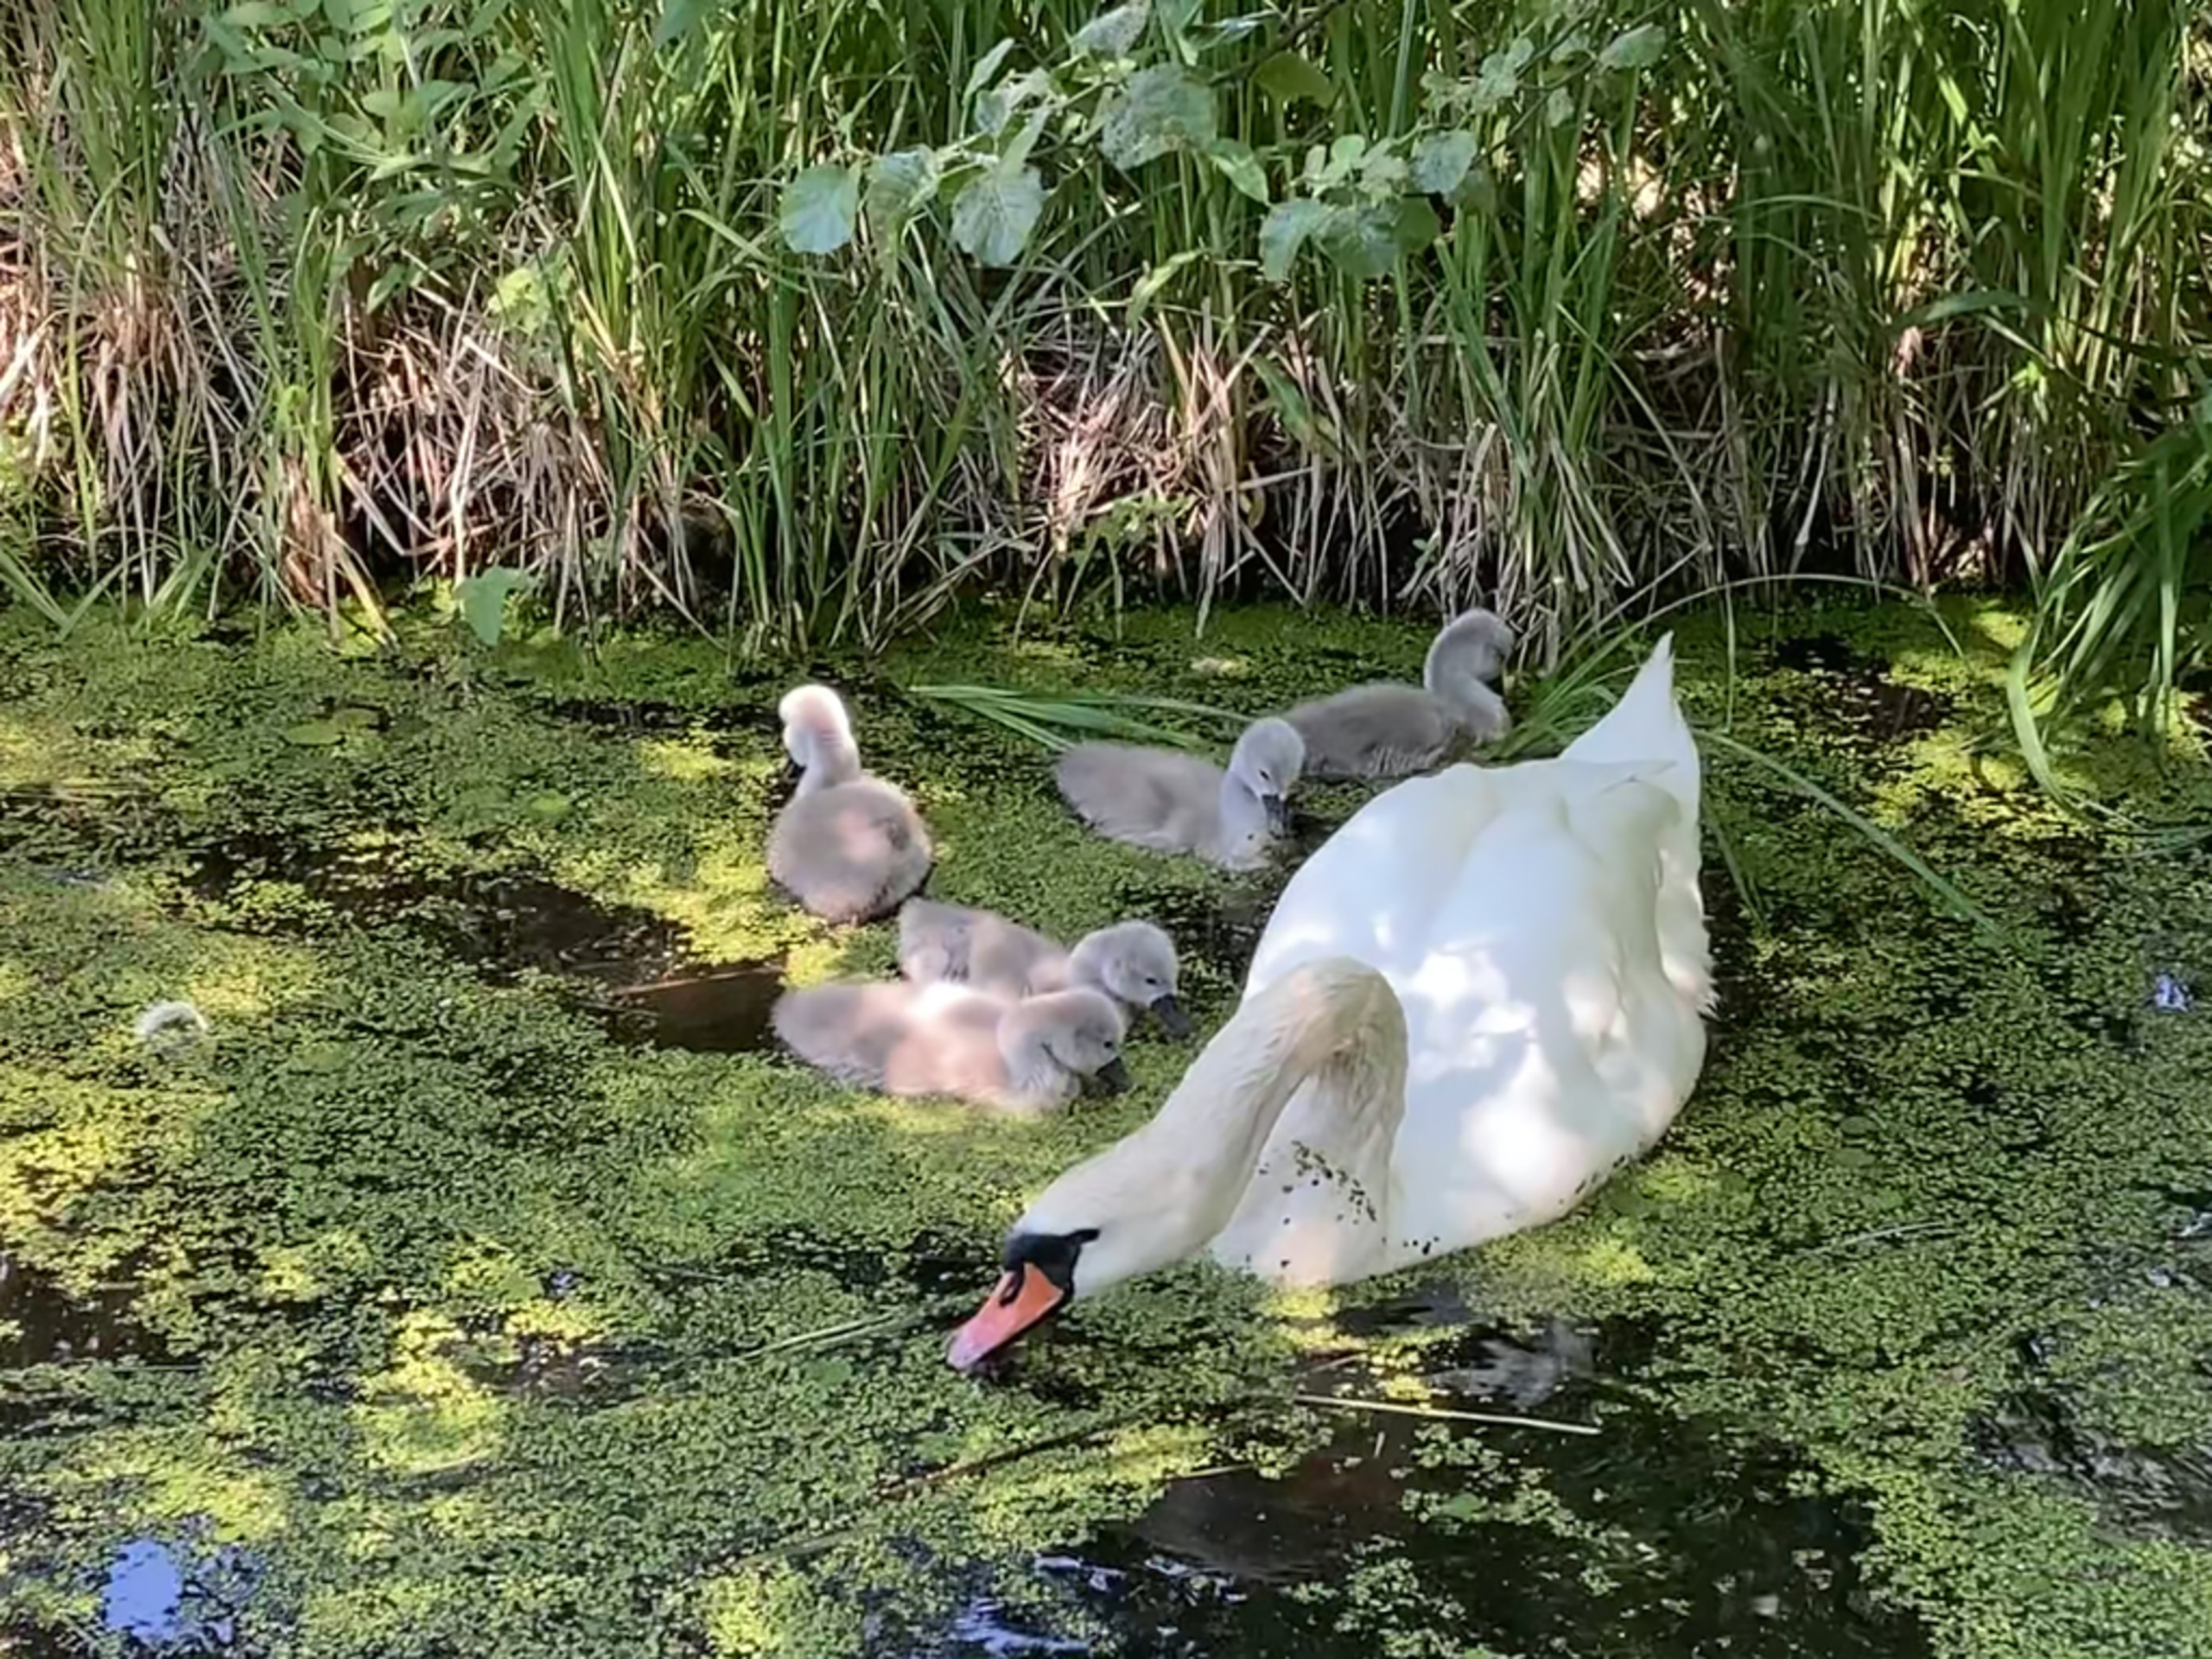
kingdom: Animalia
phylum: Chordata
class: Aves
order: Anseriformes
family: Anatidae
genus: Cygnus
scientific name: Cygnus olor
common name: Knopsvane
